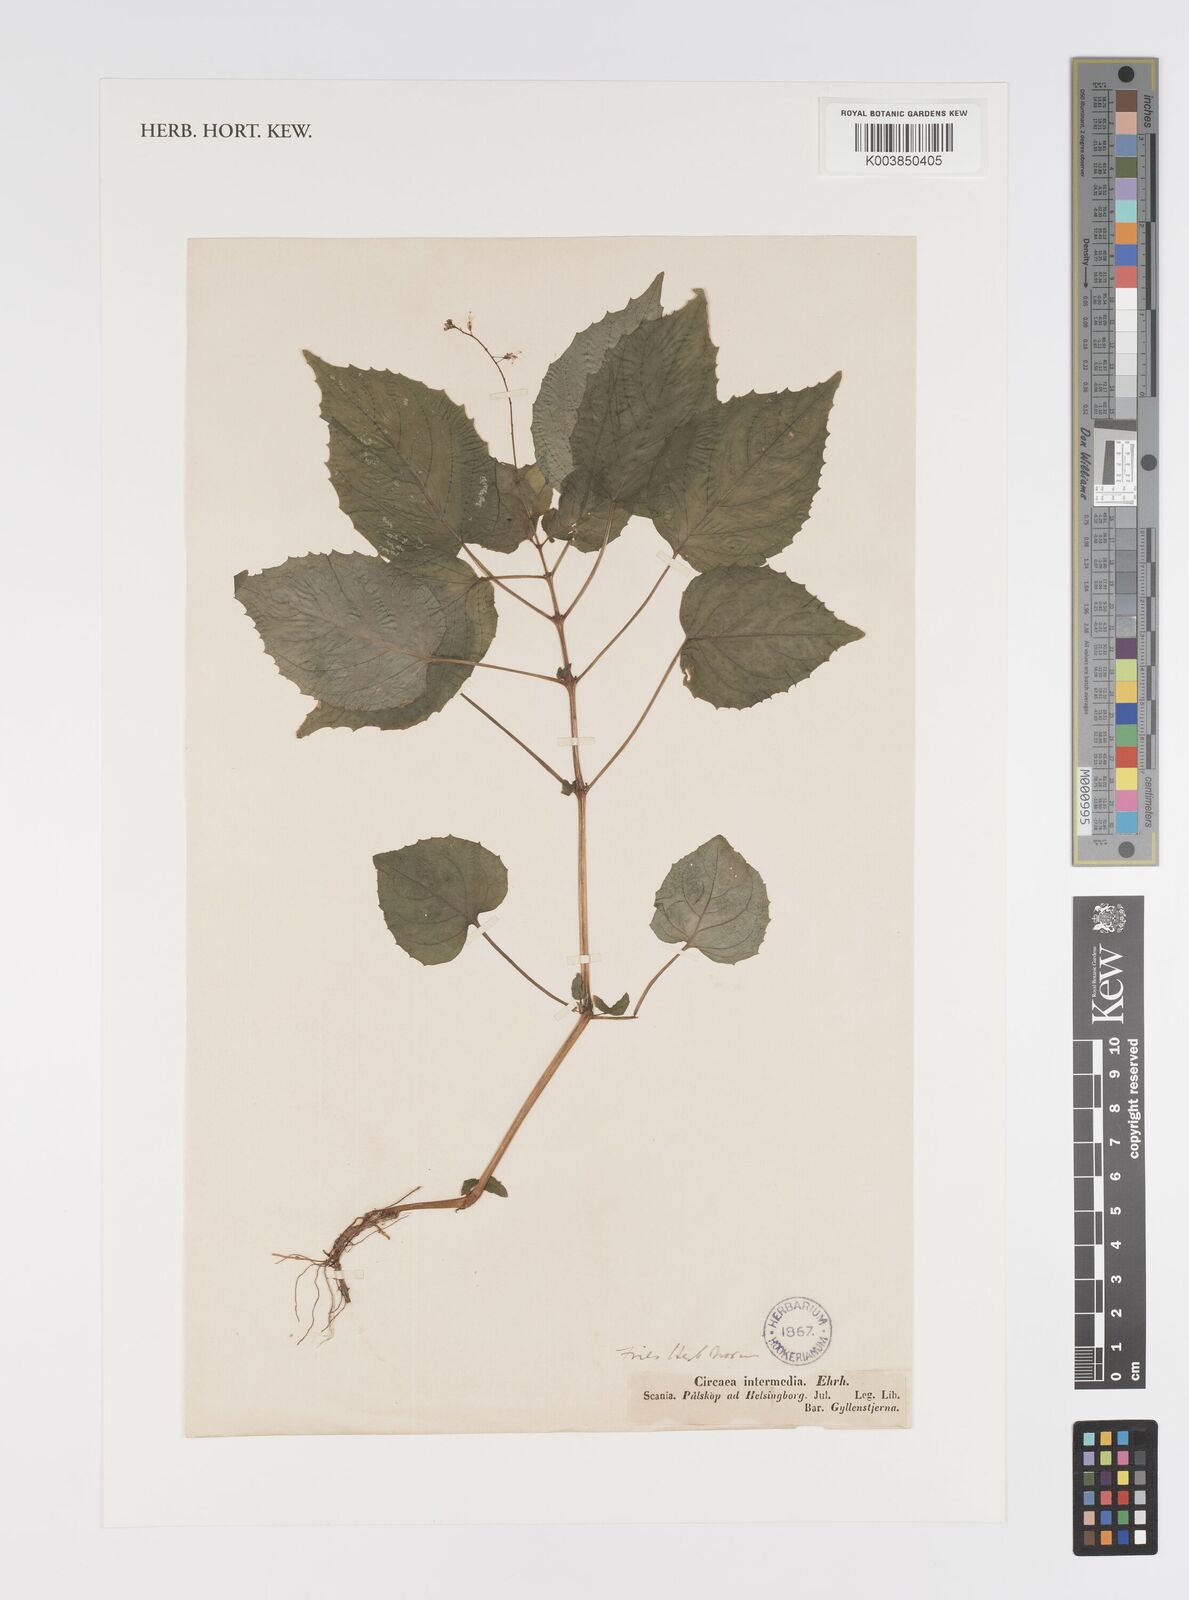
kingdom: Plantae
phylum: Tracheophyta
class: Magnoliopsida
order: Myrtales
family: Onagraceae
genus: Circaea
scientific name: Circaea intermedia
